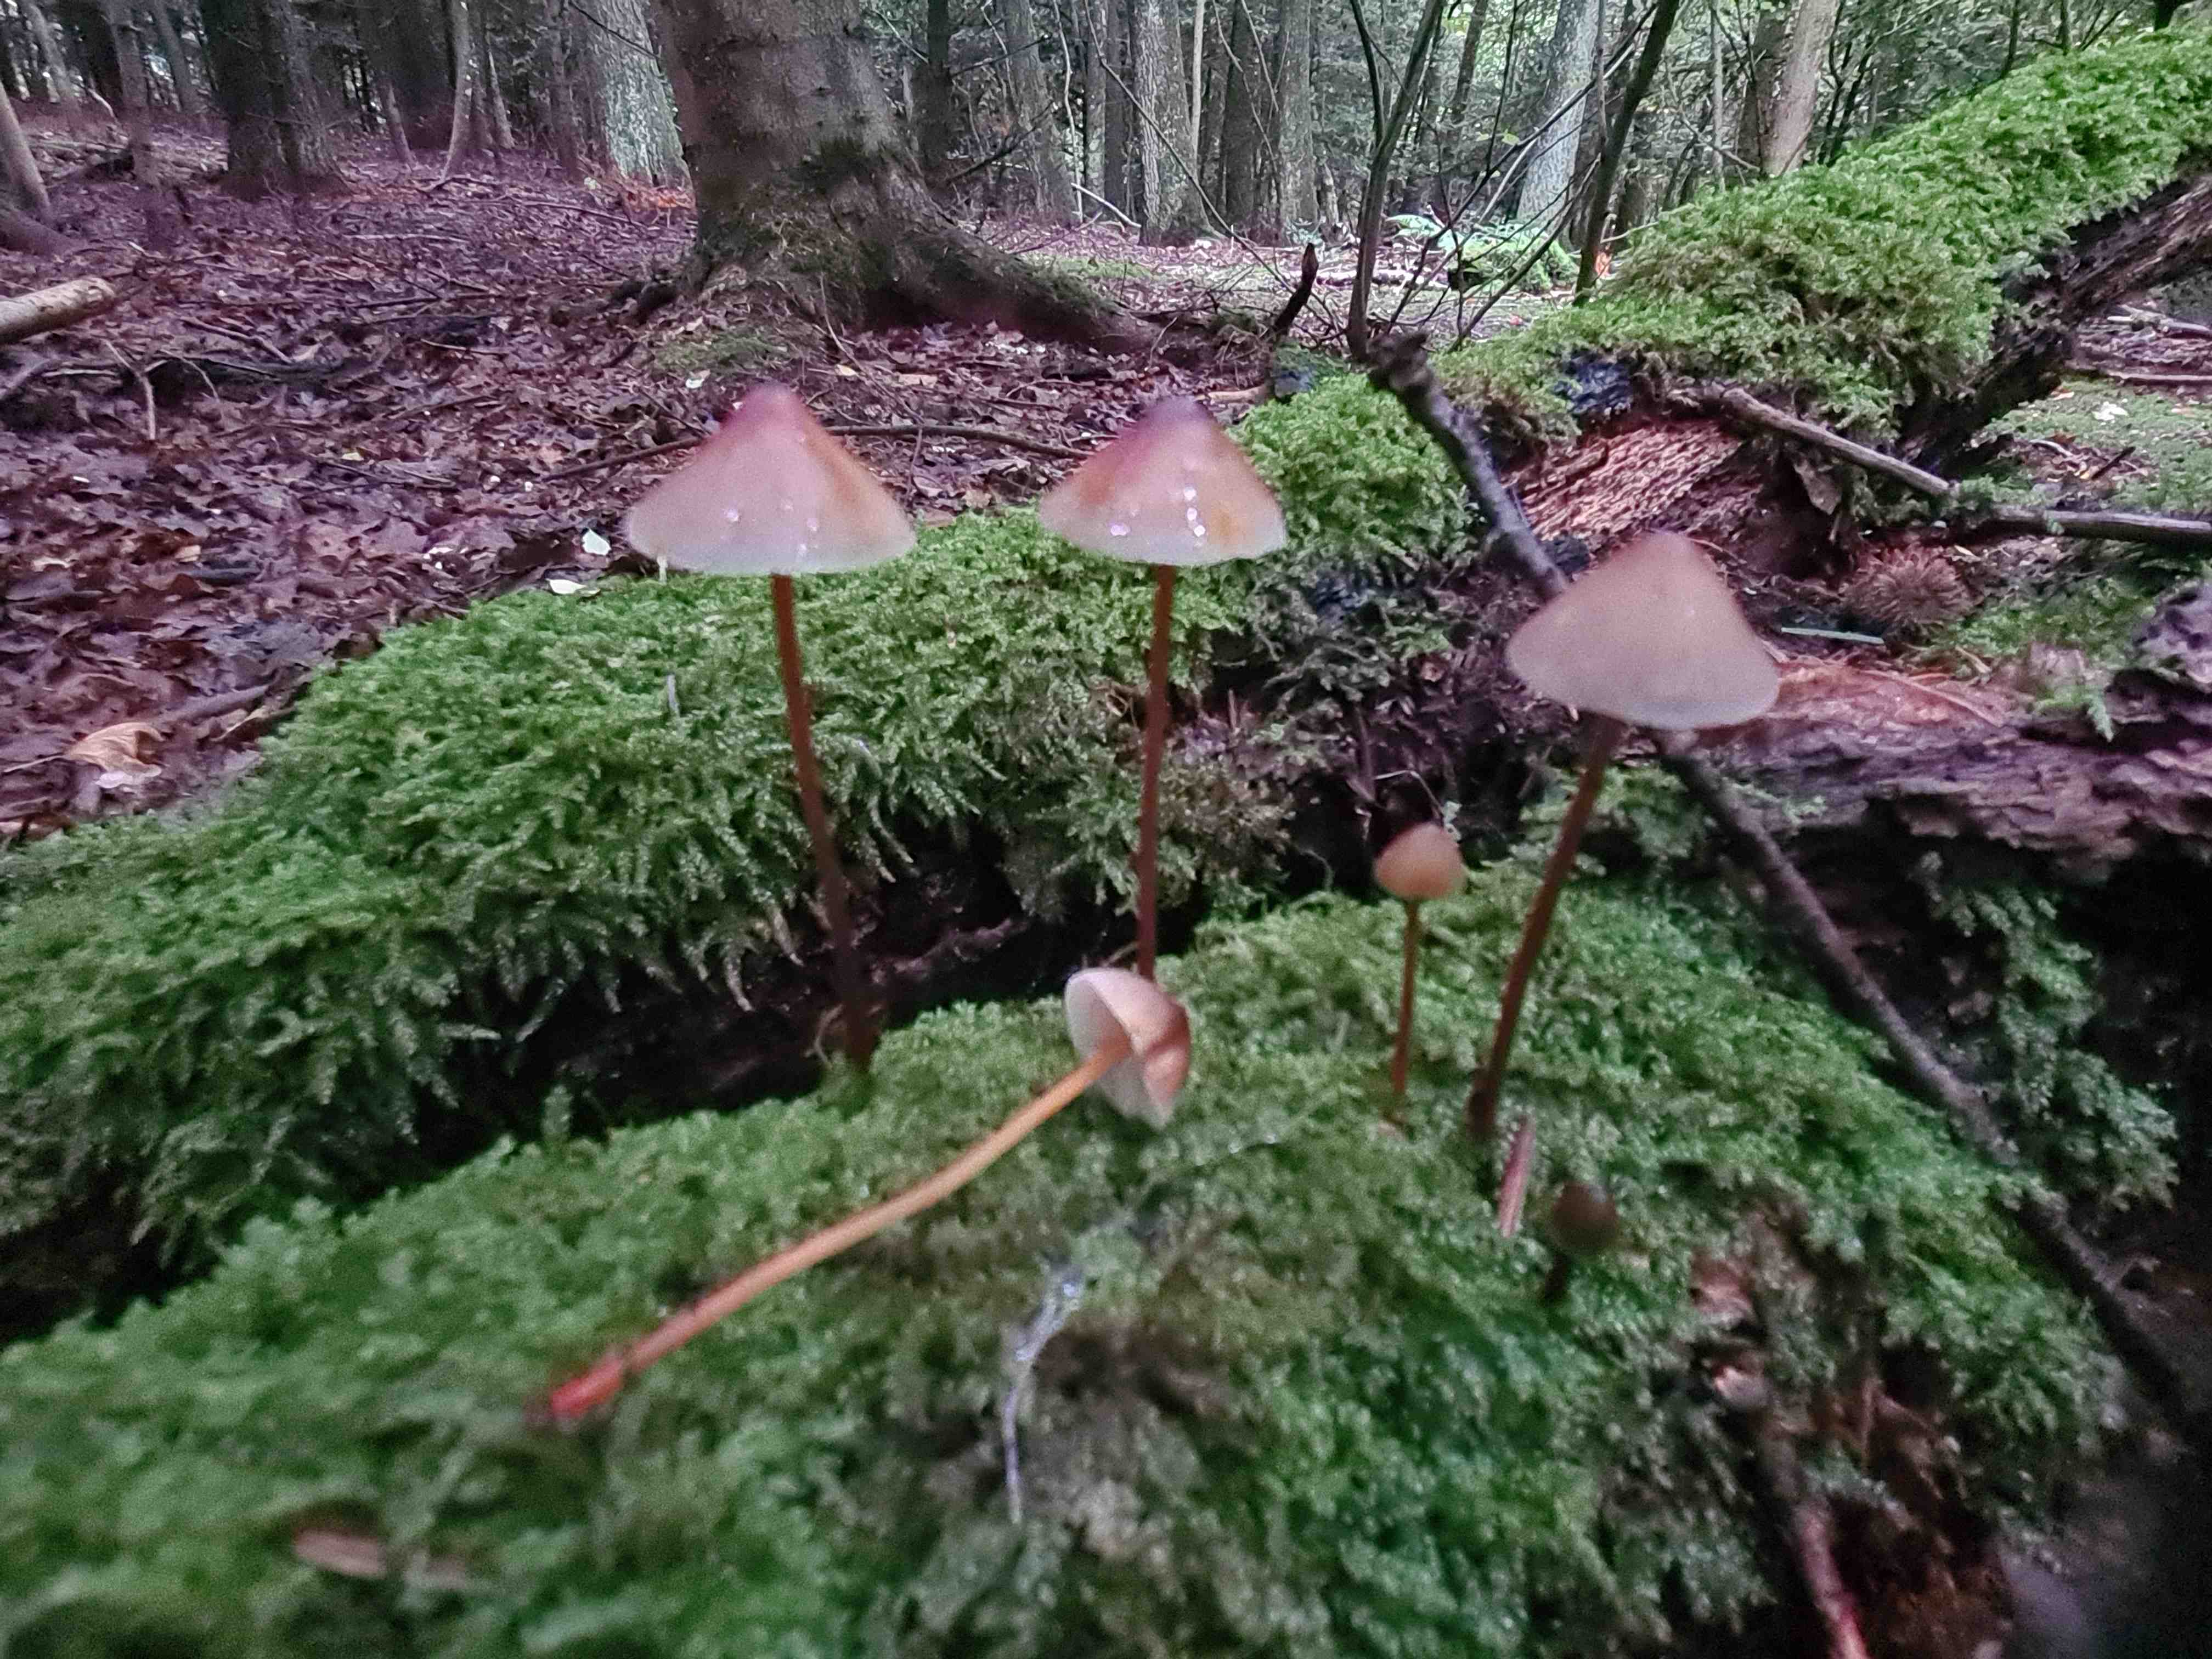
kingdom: Fungi
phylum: Basidiomycota
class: Agaricomycetes
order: Agaricales
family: Mycenaceae
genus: Mycena
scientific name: Mycena crocata
